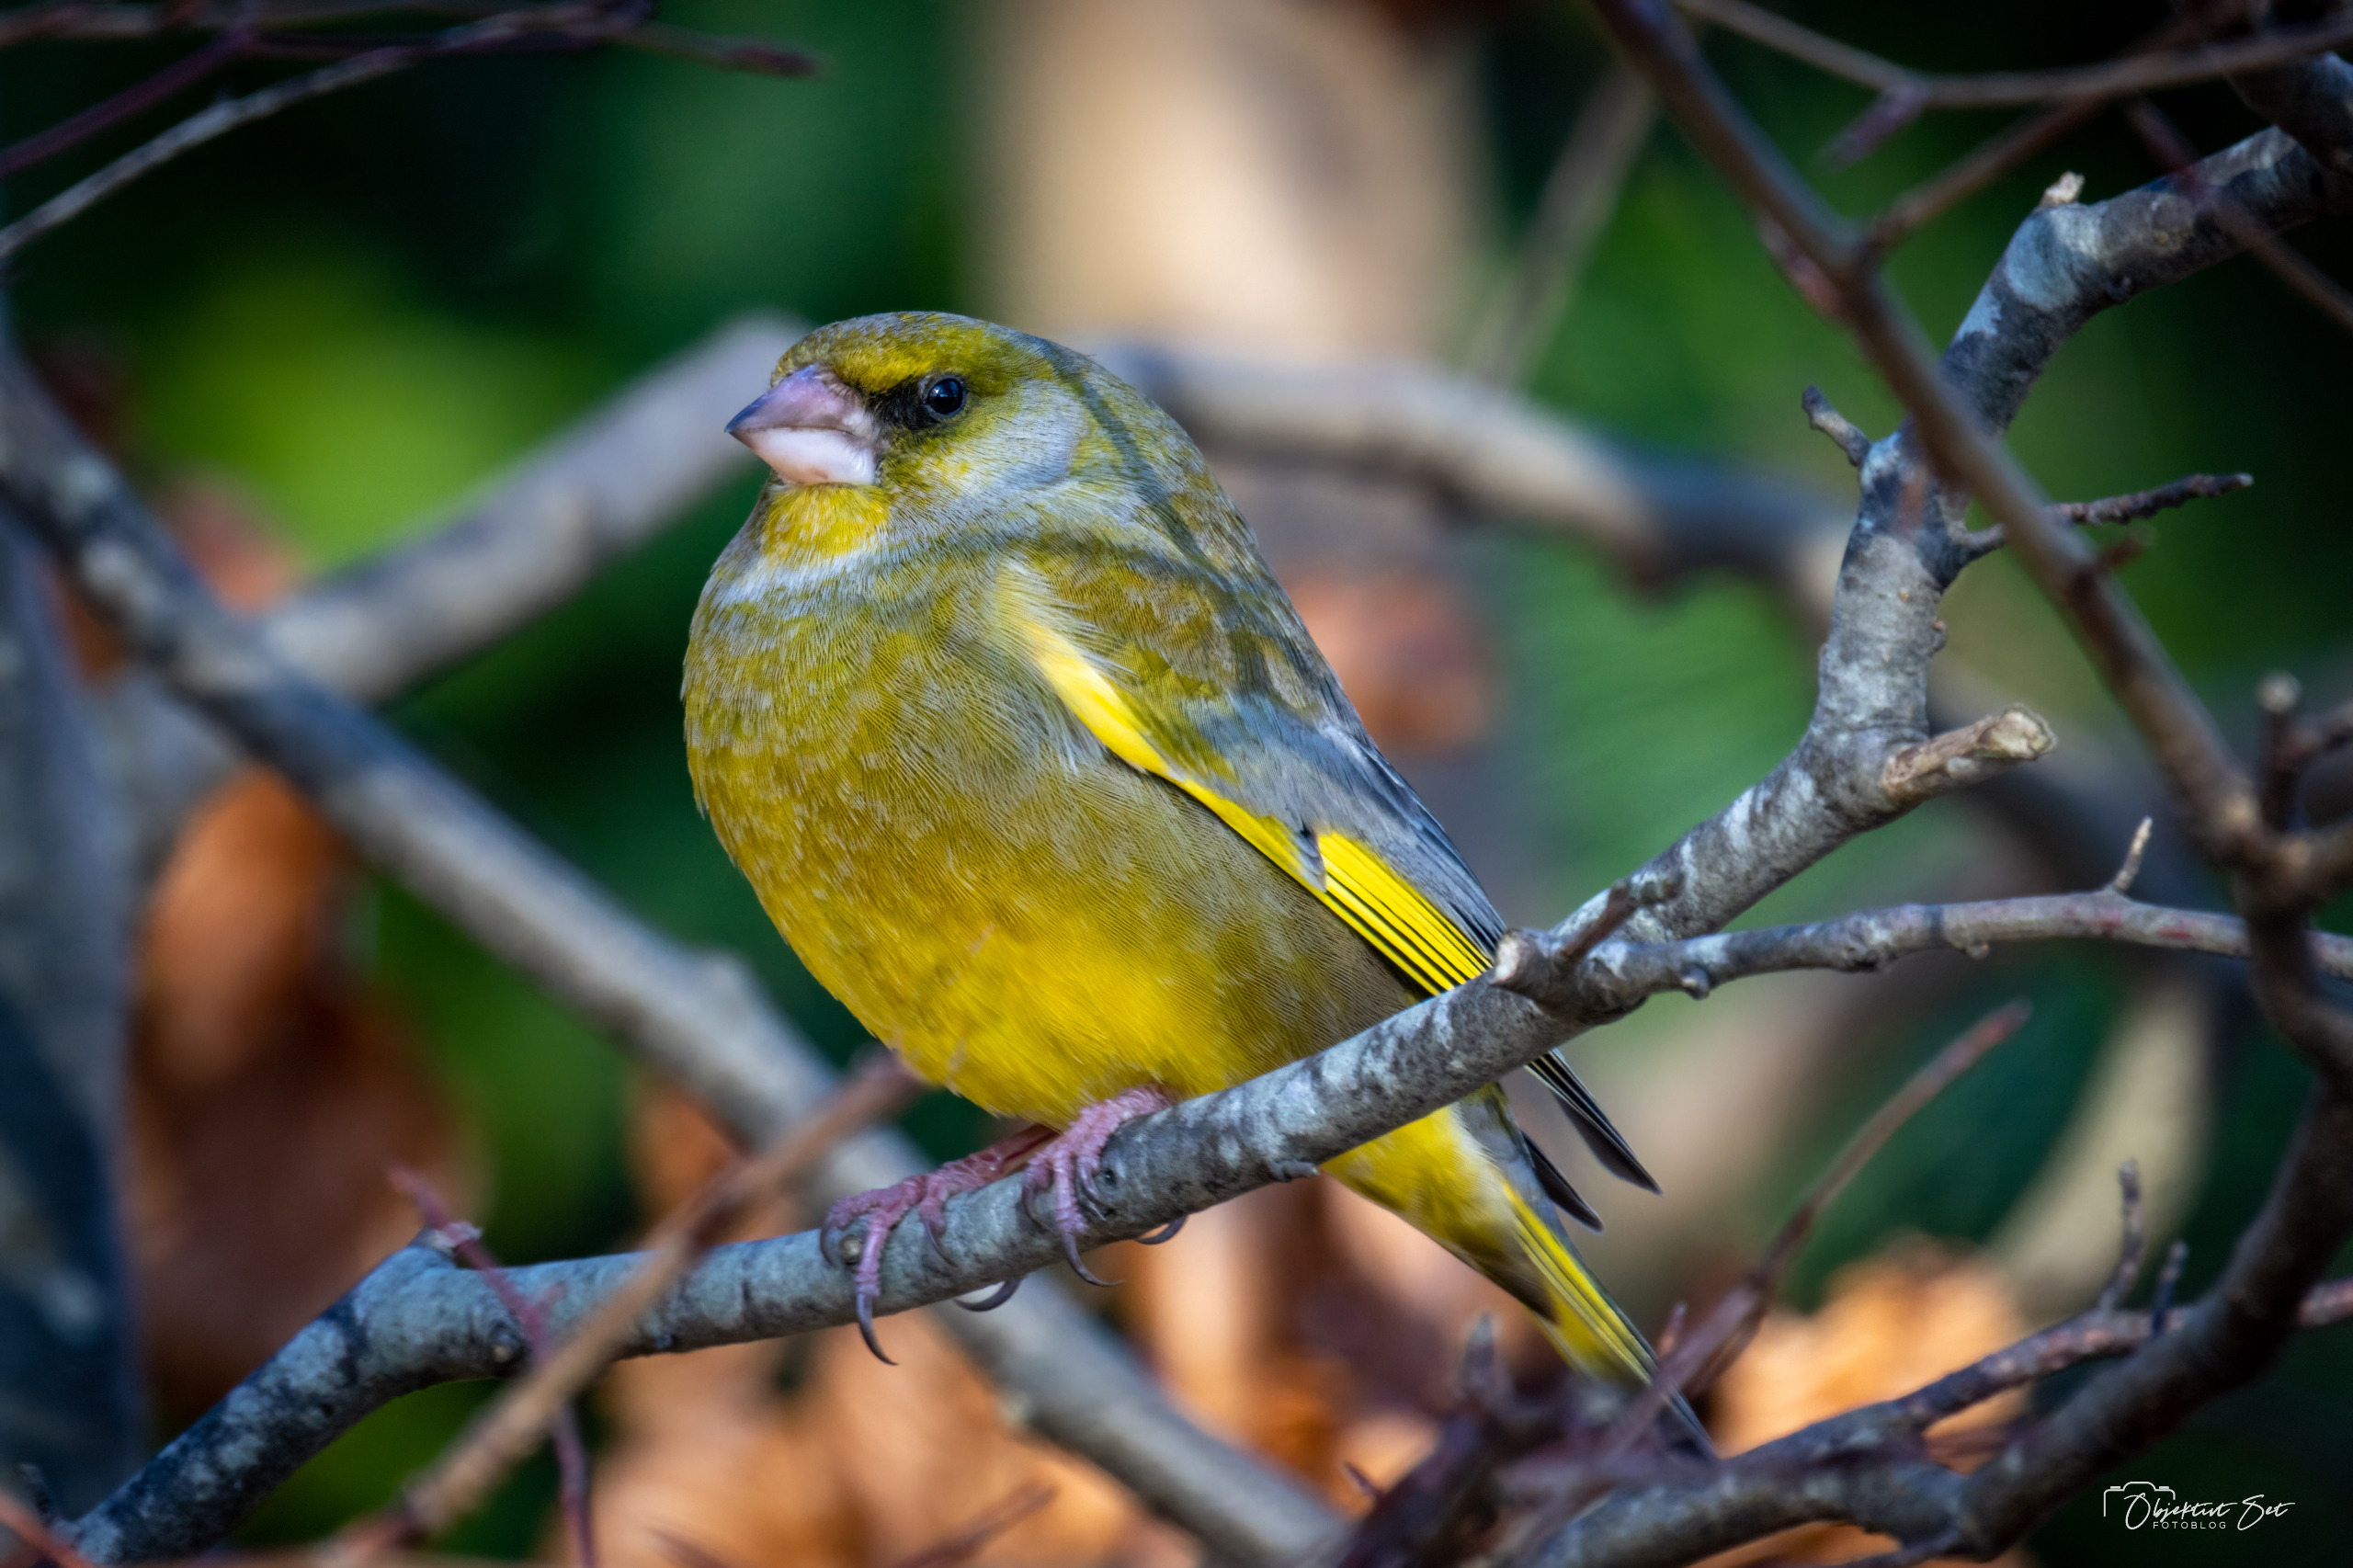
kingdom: Plantae
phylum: Tracheophyta
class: Liliopsida
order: Poales
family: Poaceae
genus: Chloris
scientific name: Chloris chloris
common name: Grønirisk
